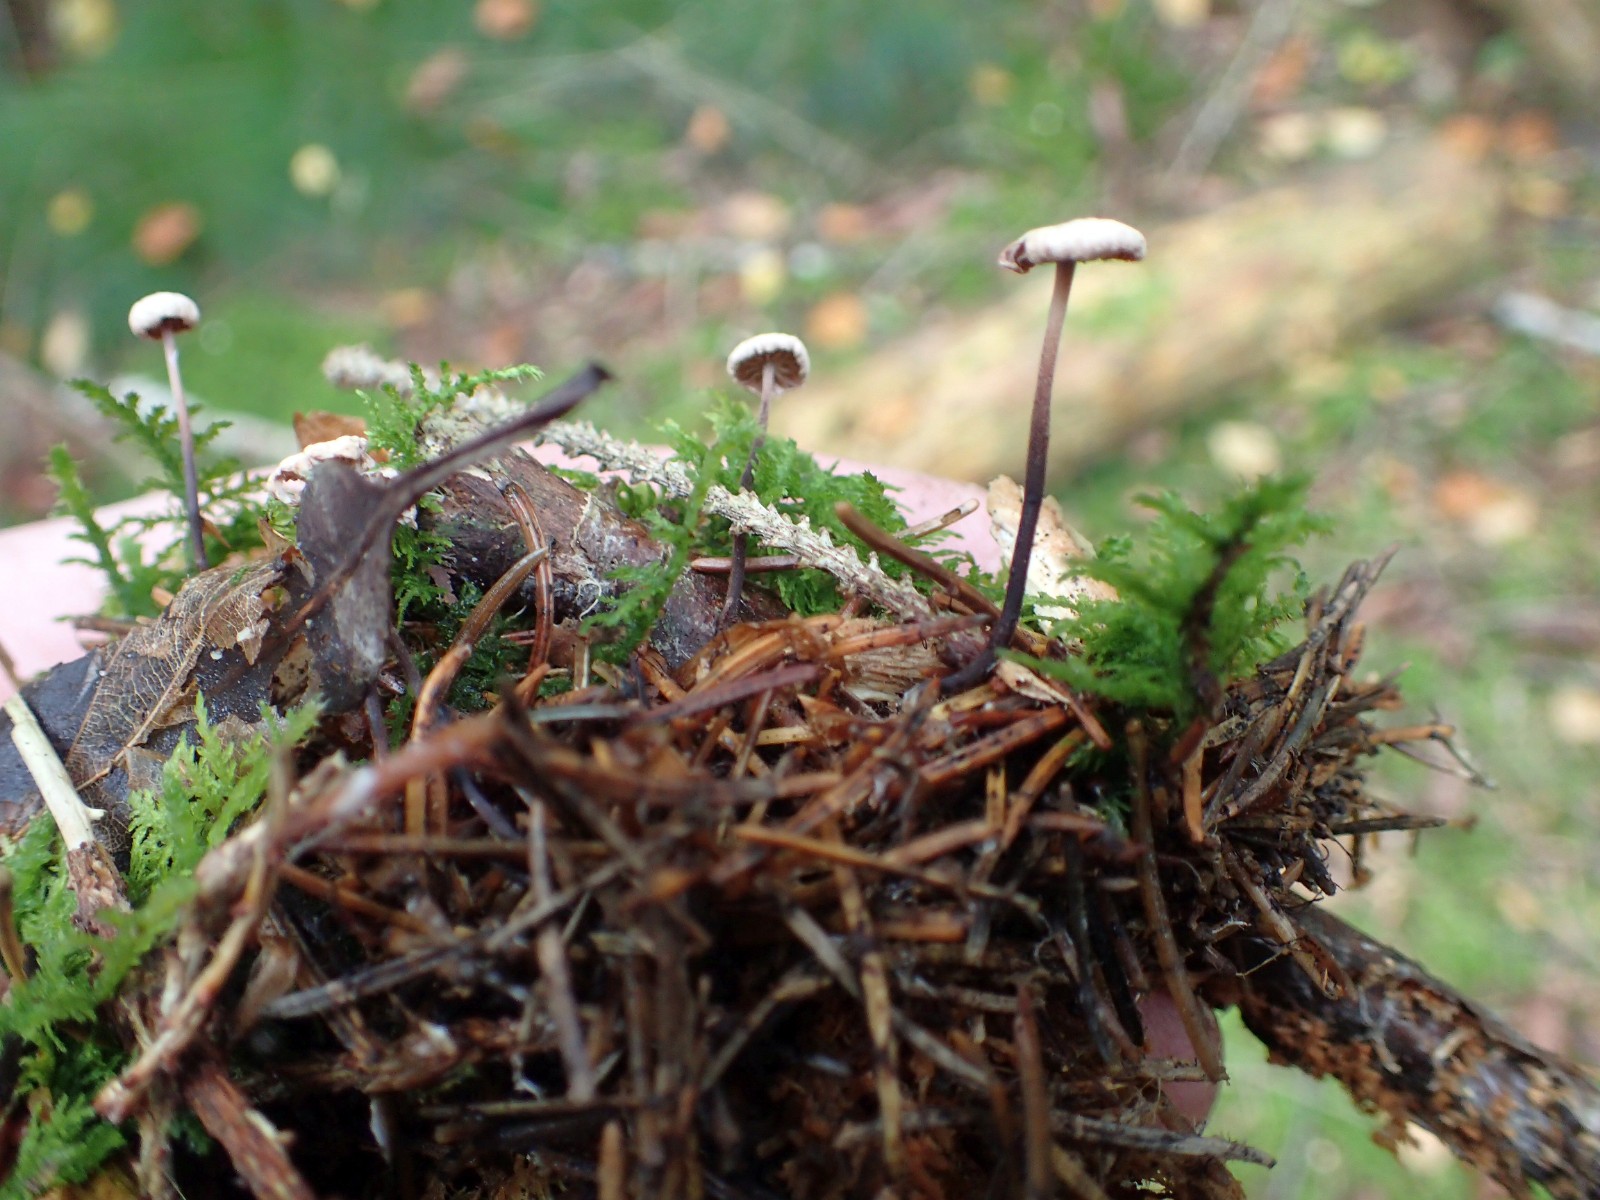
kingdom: Fungi
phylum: Basidiomycota
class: Agaricomycetes
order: Agaricales
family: Omphalotaceae
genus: Paragymnopus
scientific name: Paragymnopus perforans
